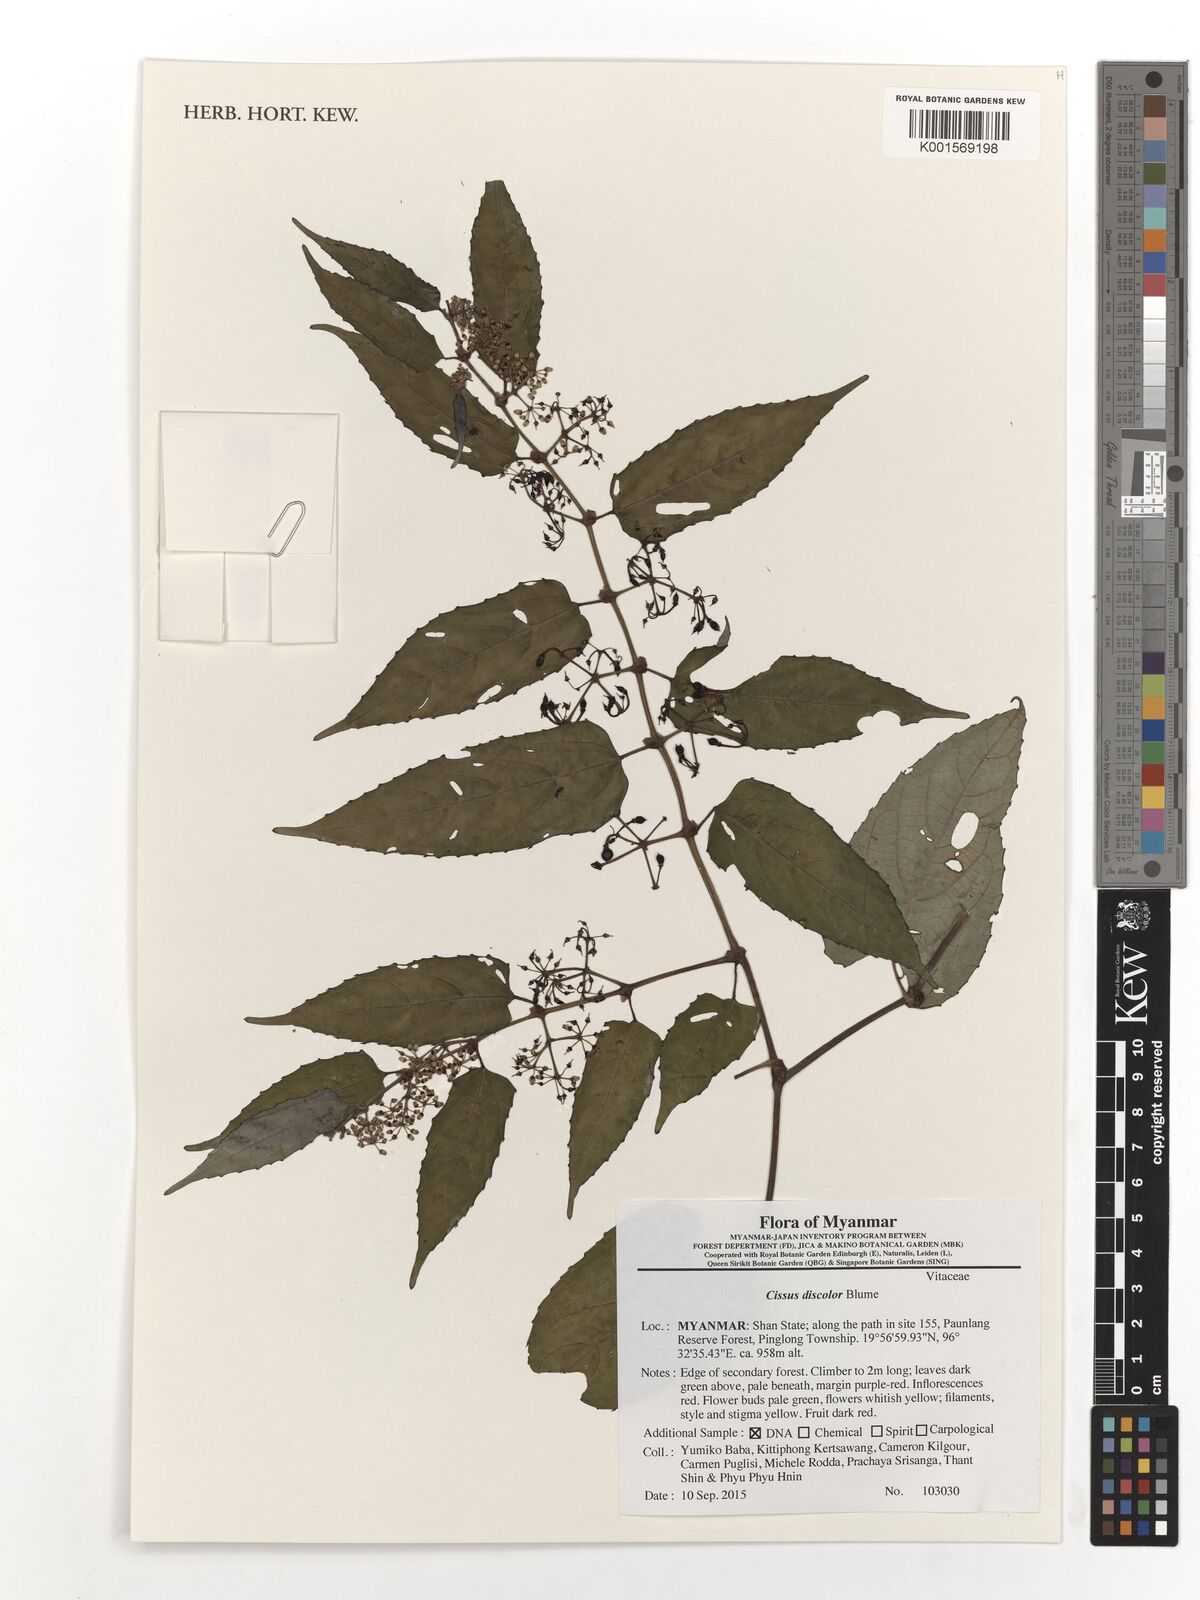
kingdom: Plantae
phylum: Tracheophyta
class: Magnoliopsida
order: Vitales
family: Vitaceae
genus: Cissus
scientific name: Cissus discolor
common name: Climbing-begonia
